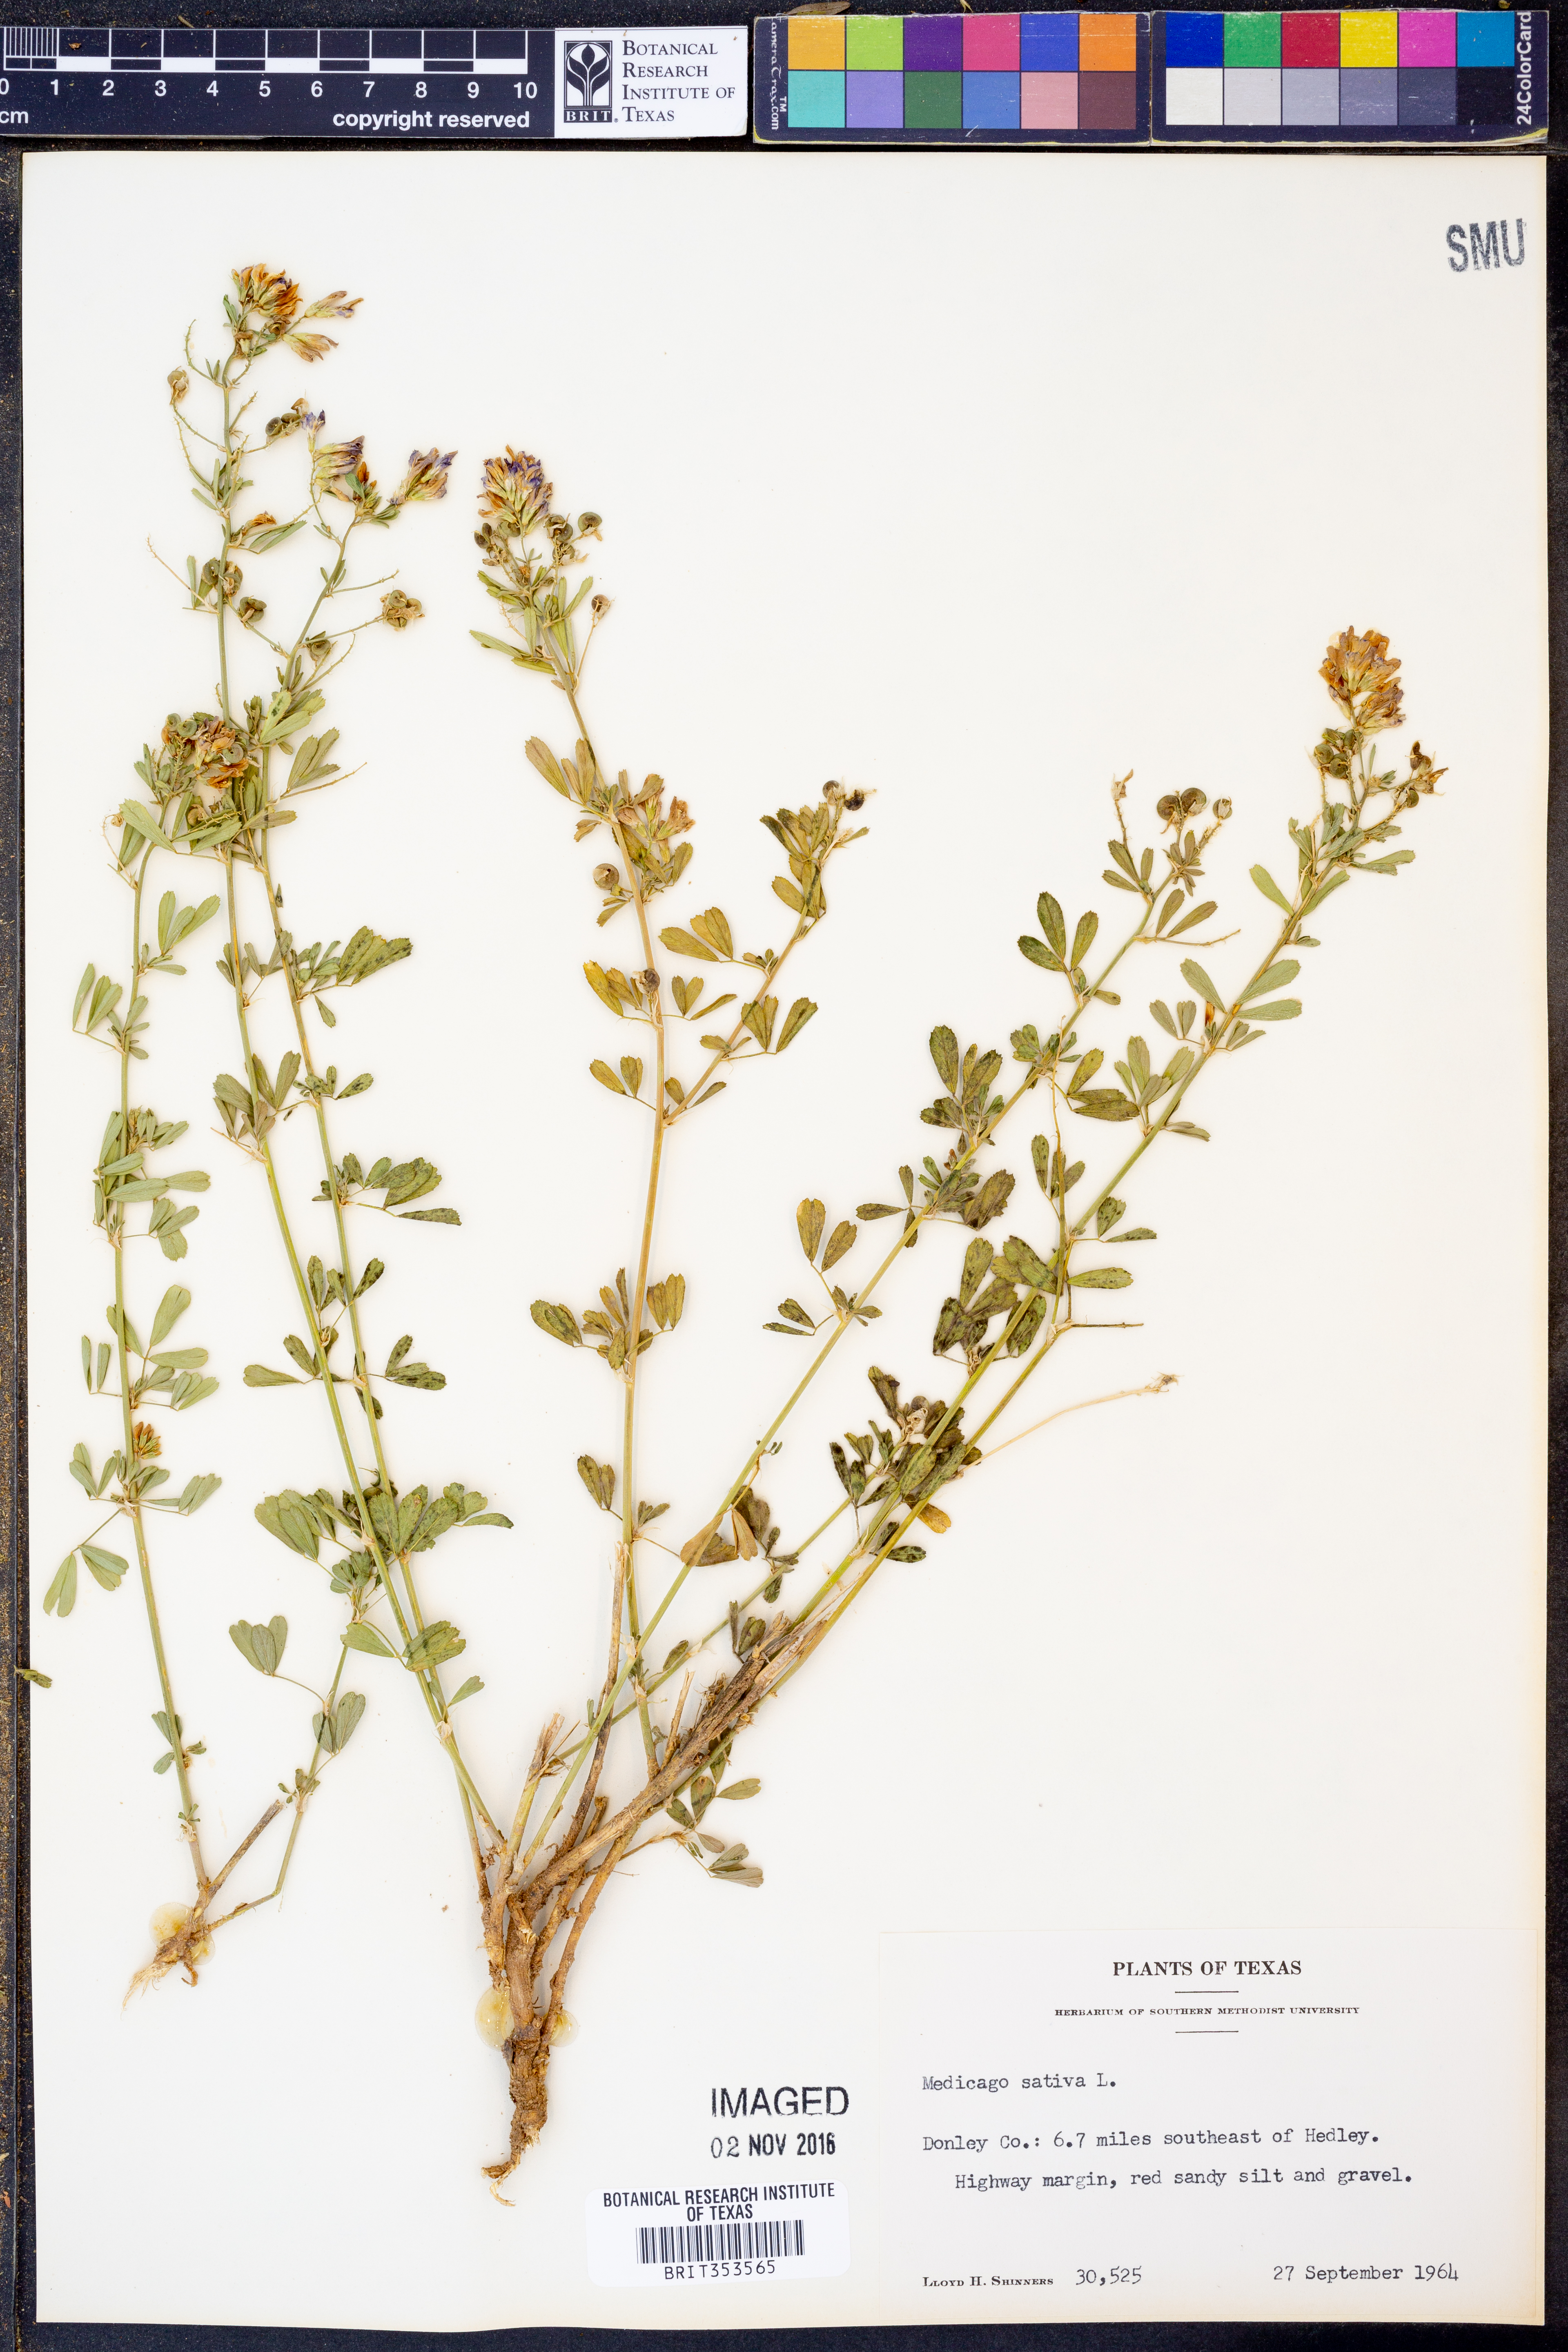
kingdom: Plantae
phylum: Tracheophyta
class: Magnoliopsida
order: Fabales
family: Fabaceae
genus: Medicago
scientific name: Medicago sativa
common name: Alfalfa
